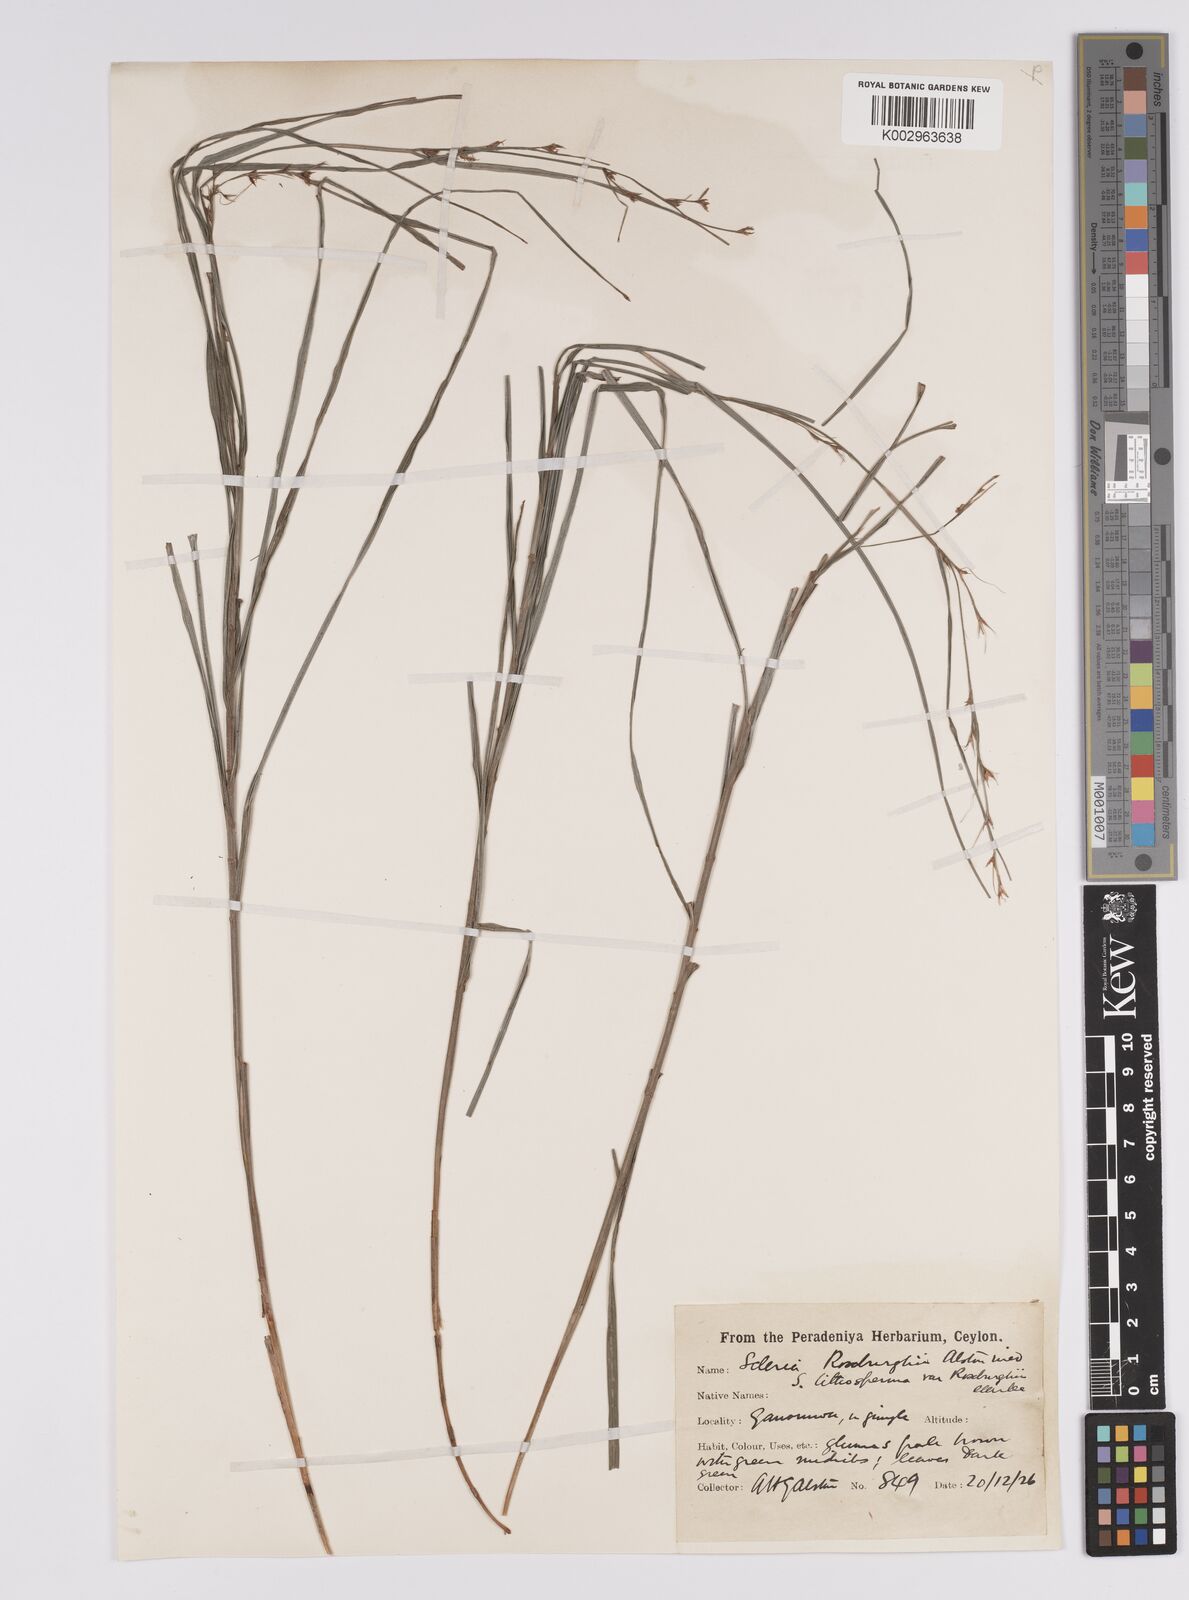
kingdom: Plantae
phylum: Tracheophyta
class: Liliopsida
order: Poales
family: Cyperaceae
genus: Scleria
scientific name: Scleria lithosperma
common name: Florida keys nut-rush
